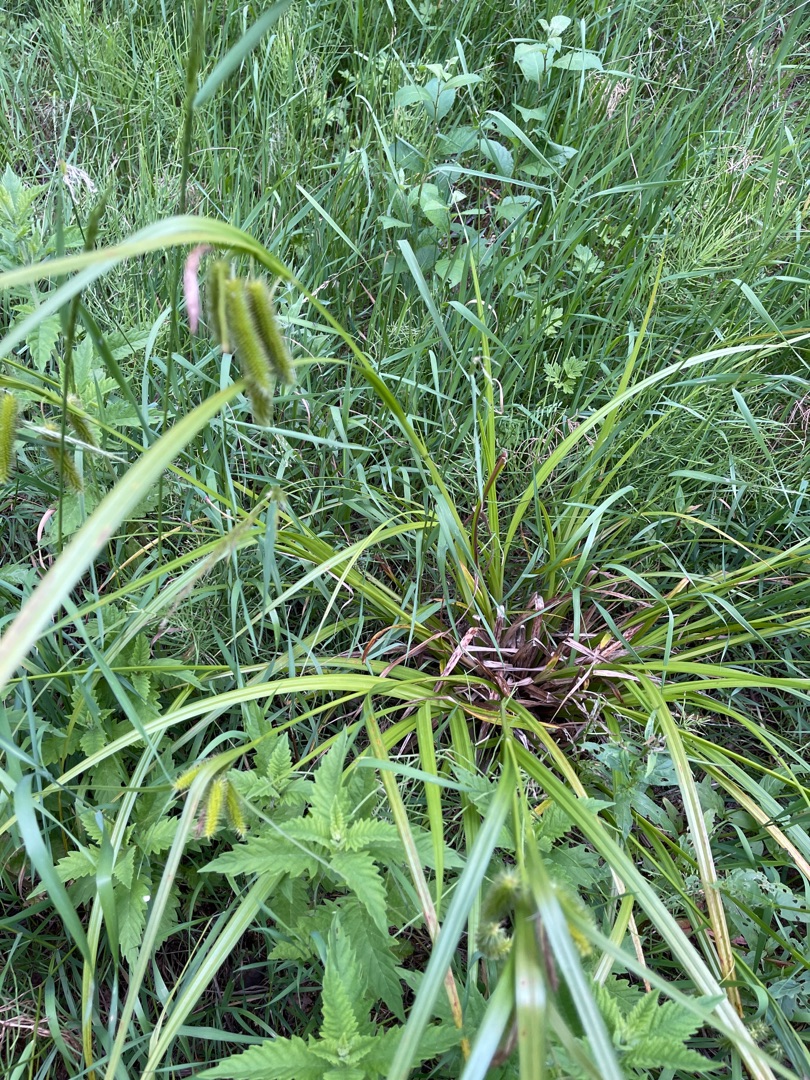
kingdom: Plantae
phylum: Tracheophyta
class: Liliopsida
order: Poales
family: Cyperaceae
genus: Carex
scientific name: Carex pseudocyperus
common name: Knippe-star
